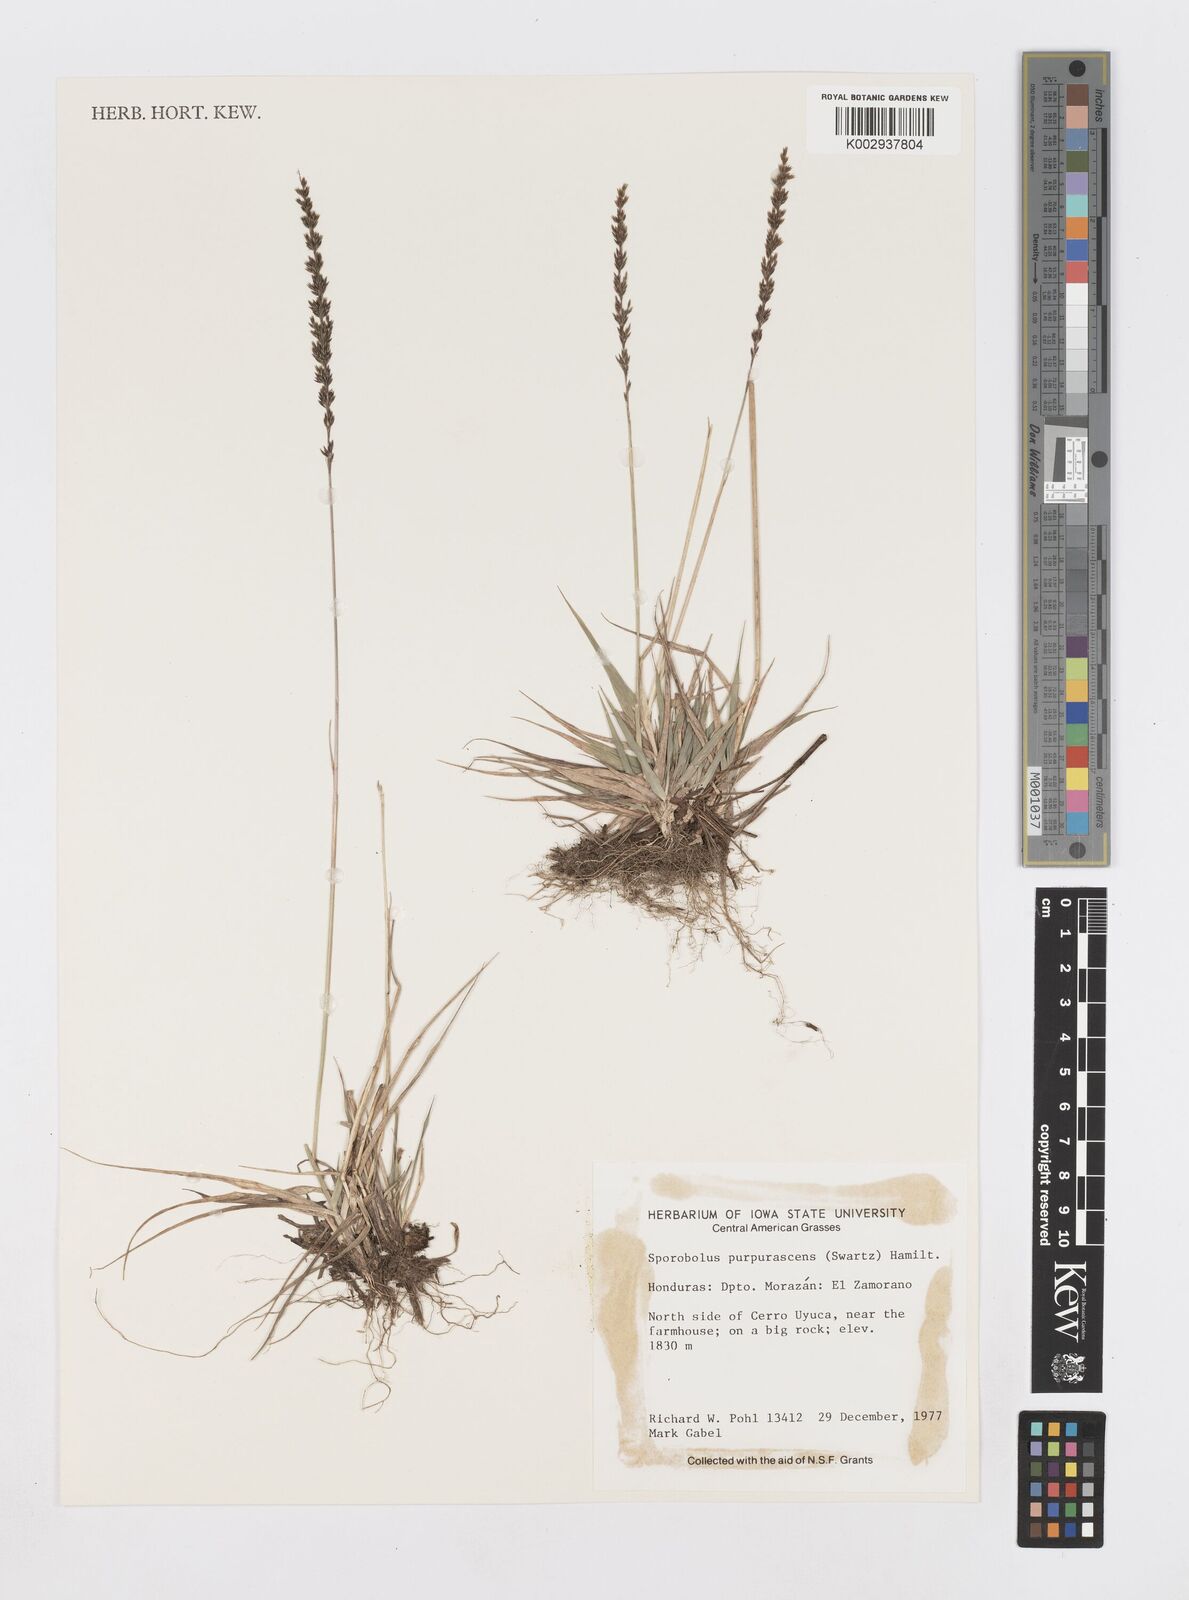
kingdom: Plantae
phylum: Tracheophyta
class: Liliopsida
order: Poales
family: Poaceae
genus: Sporobolus
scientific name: Sporobolus purpurascens
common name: Purple dropseed
